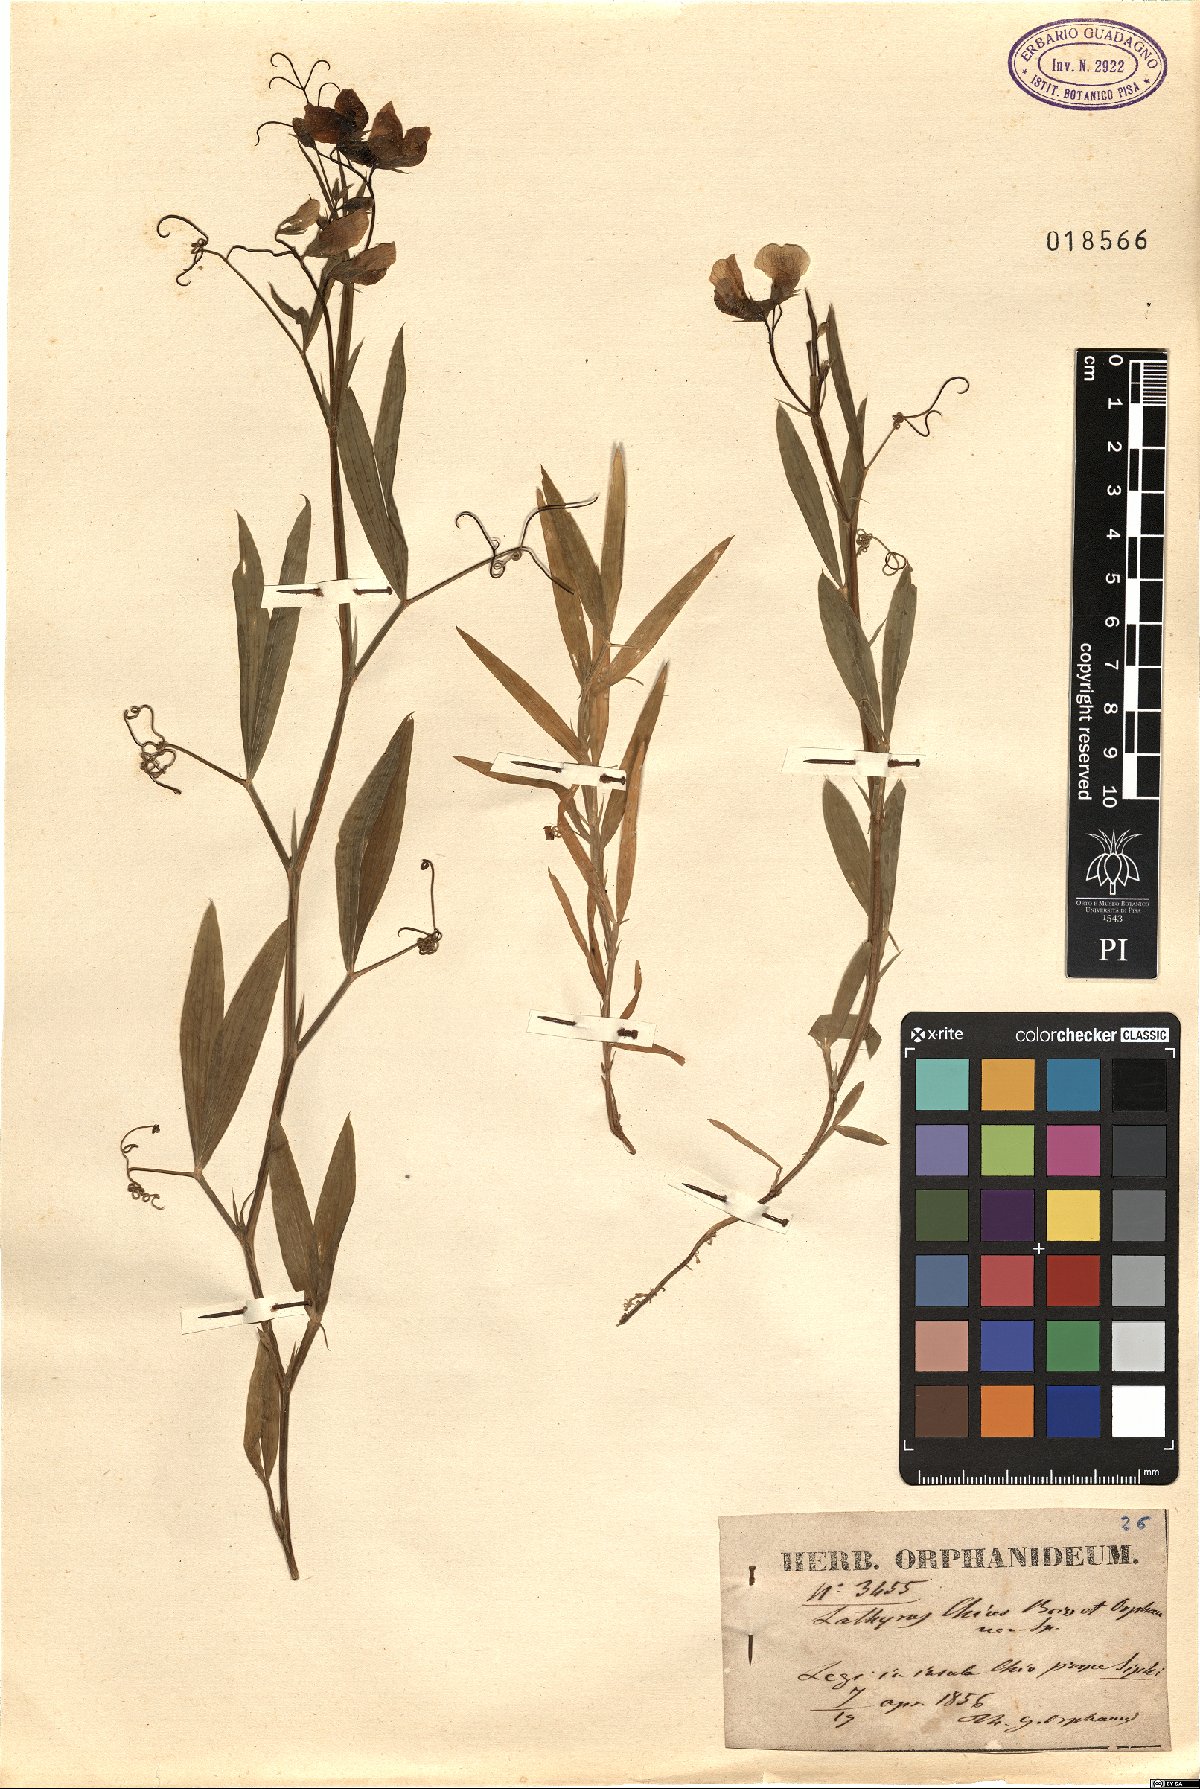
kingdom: Plantae
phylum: Tracheophyta
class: Magnoliopsida
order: Fabales
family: Fabaceae
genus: Lathyrus
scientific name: Lathyrus annuus
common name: Fodder pea
